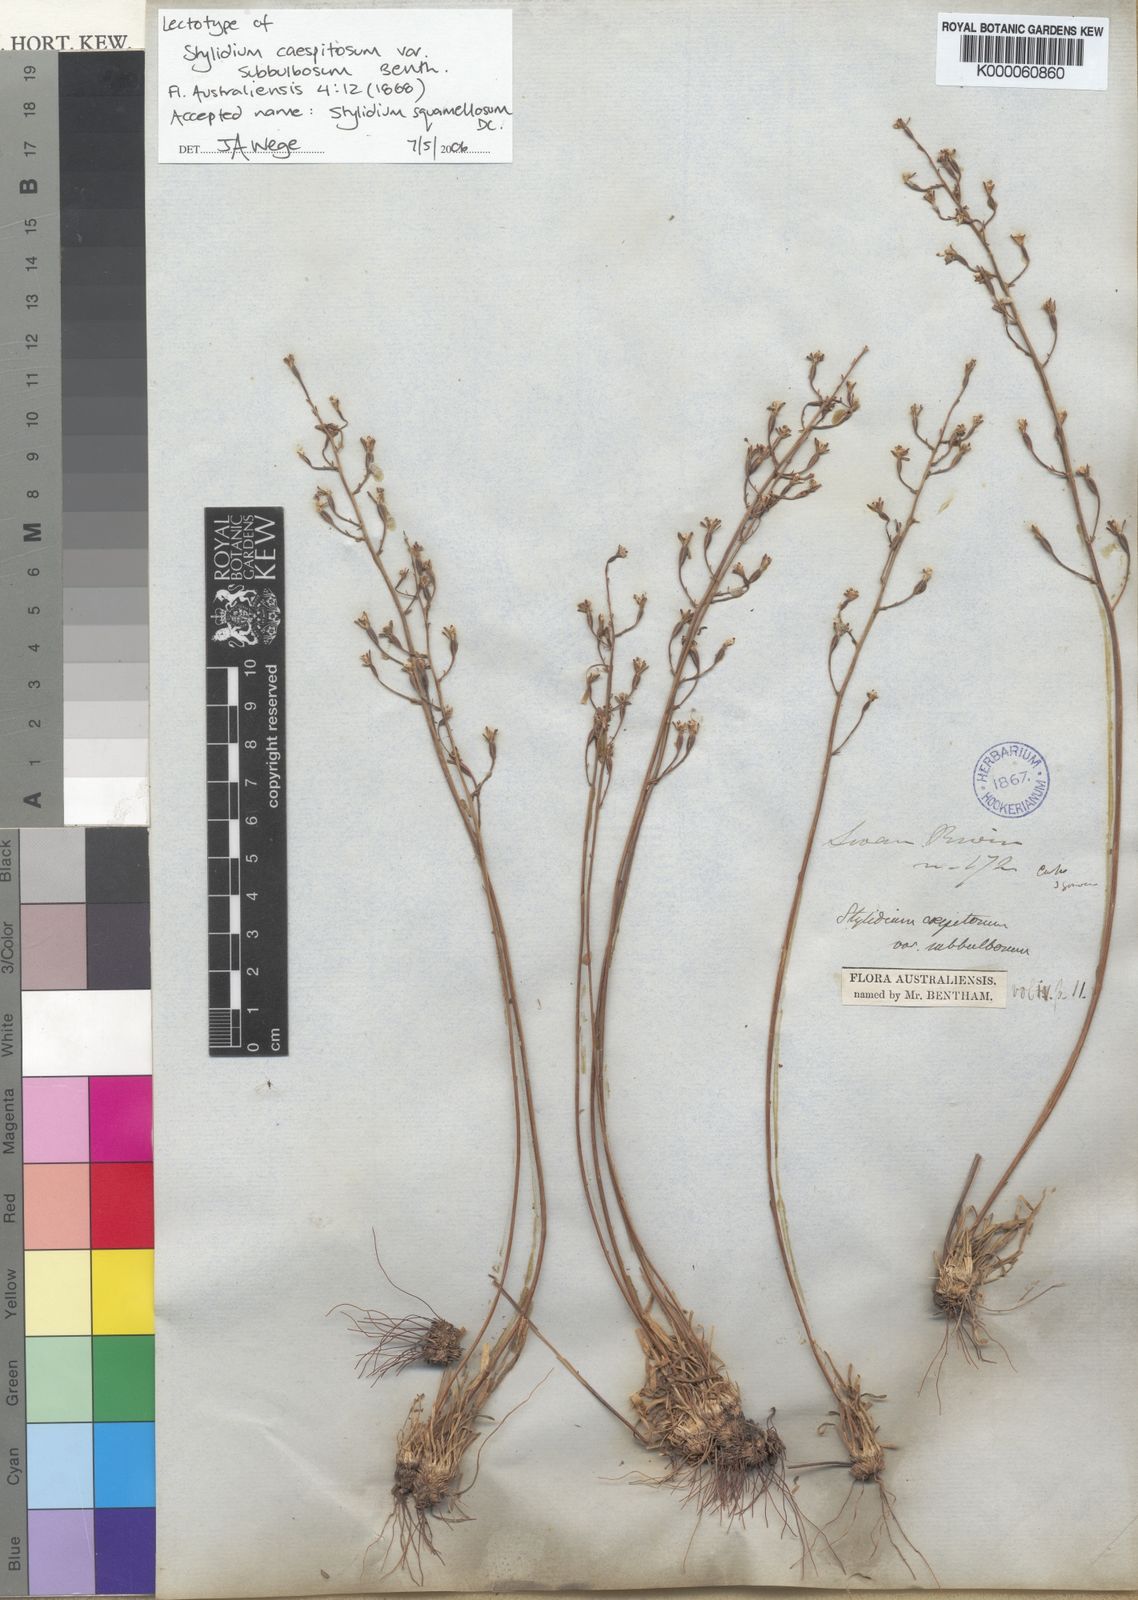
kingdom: Plantae
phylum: Tracheophyta
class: Magnoliopsida
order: Asterales
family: Stylidiaceae
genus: Stylidium
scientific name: Stylidium squamellosum
